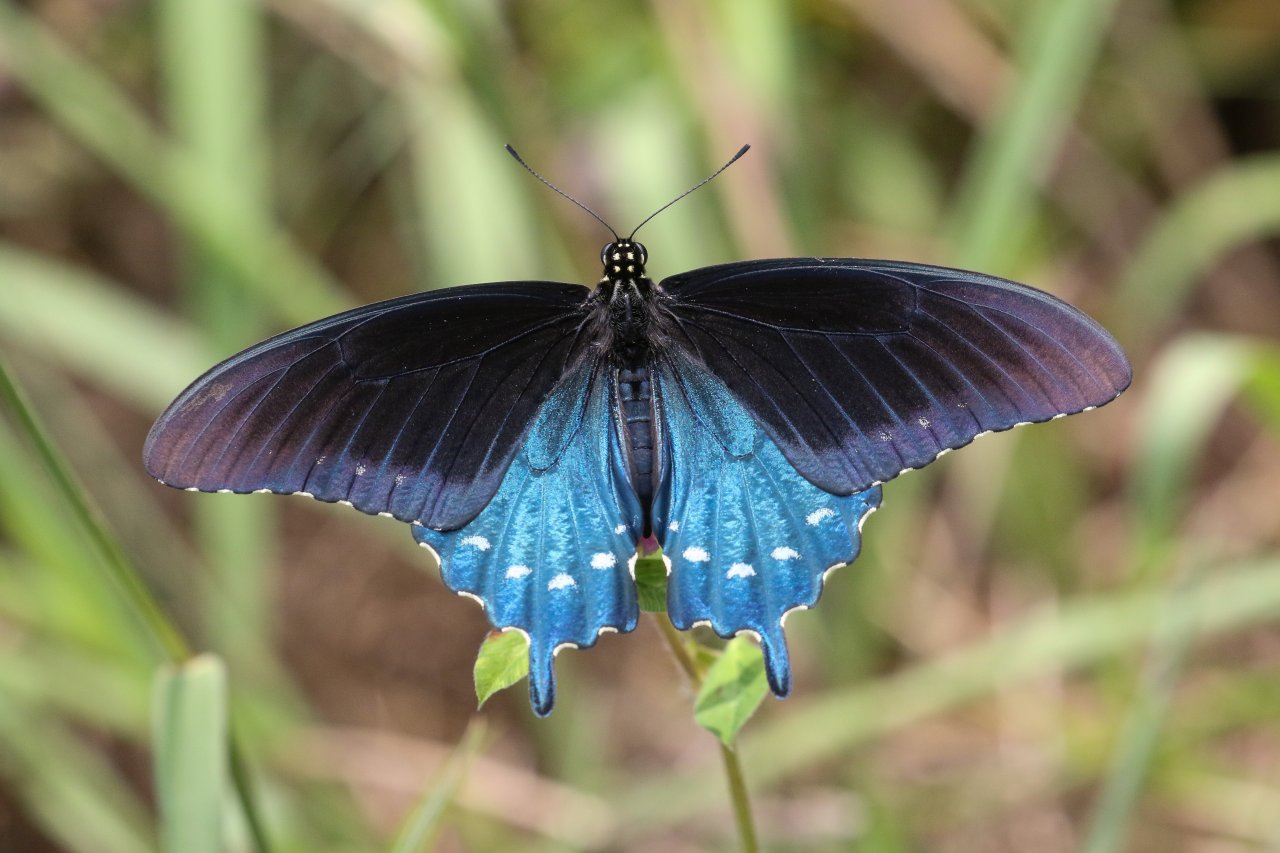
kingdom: Animalia
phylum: Arthropoda
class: Insecta
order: Lepidoptera
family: Papilionidae
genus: Battus
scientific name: Battus philenor
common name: Pipevine Swallowtail
